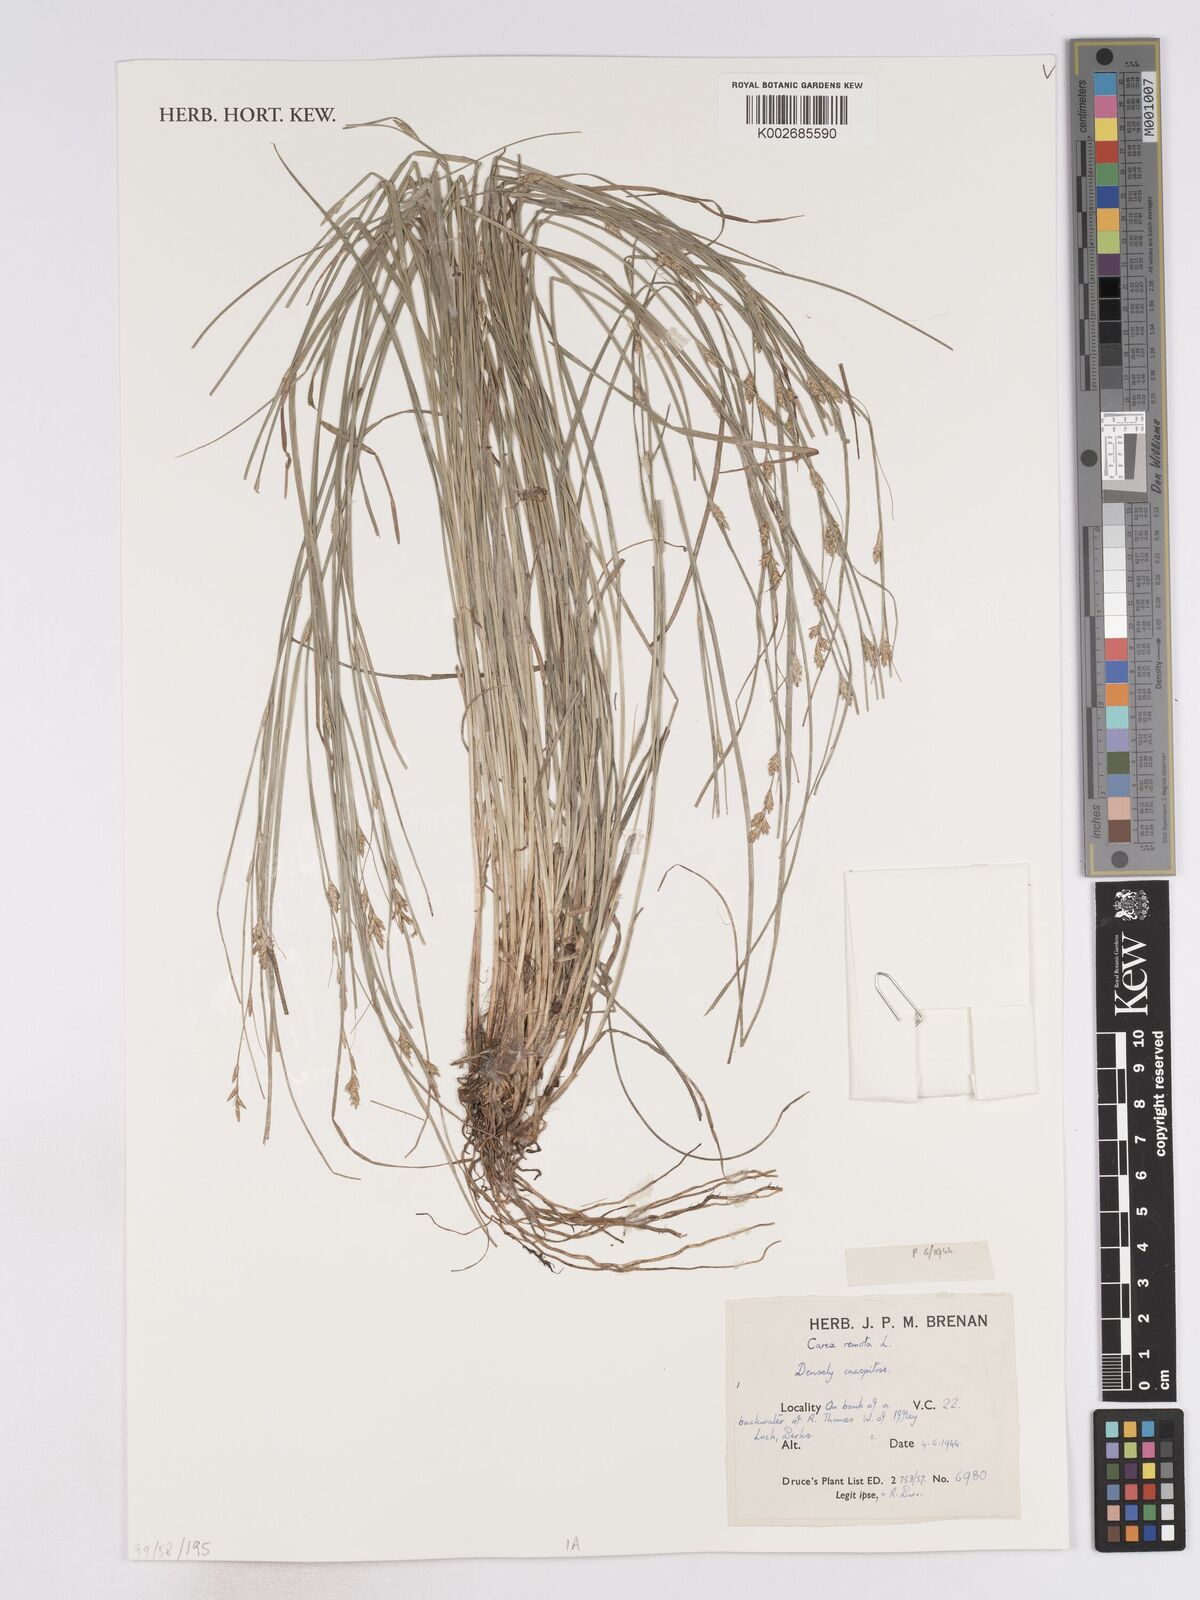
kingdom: Plantae
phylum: Tracheophyta
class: Liliopsida
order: Poales
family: Cyperaceae
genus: Carex
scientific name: Carex remota
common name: Remote sedge
